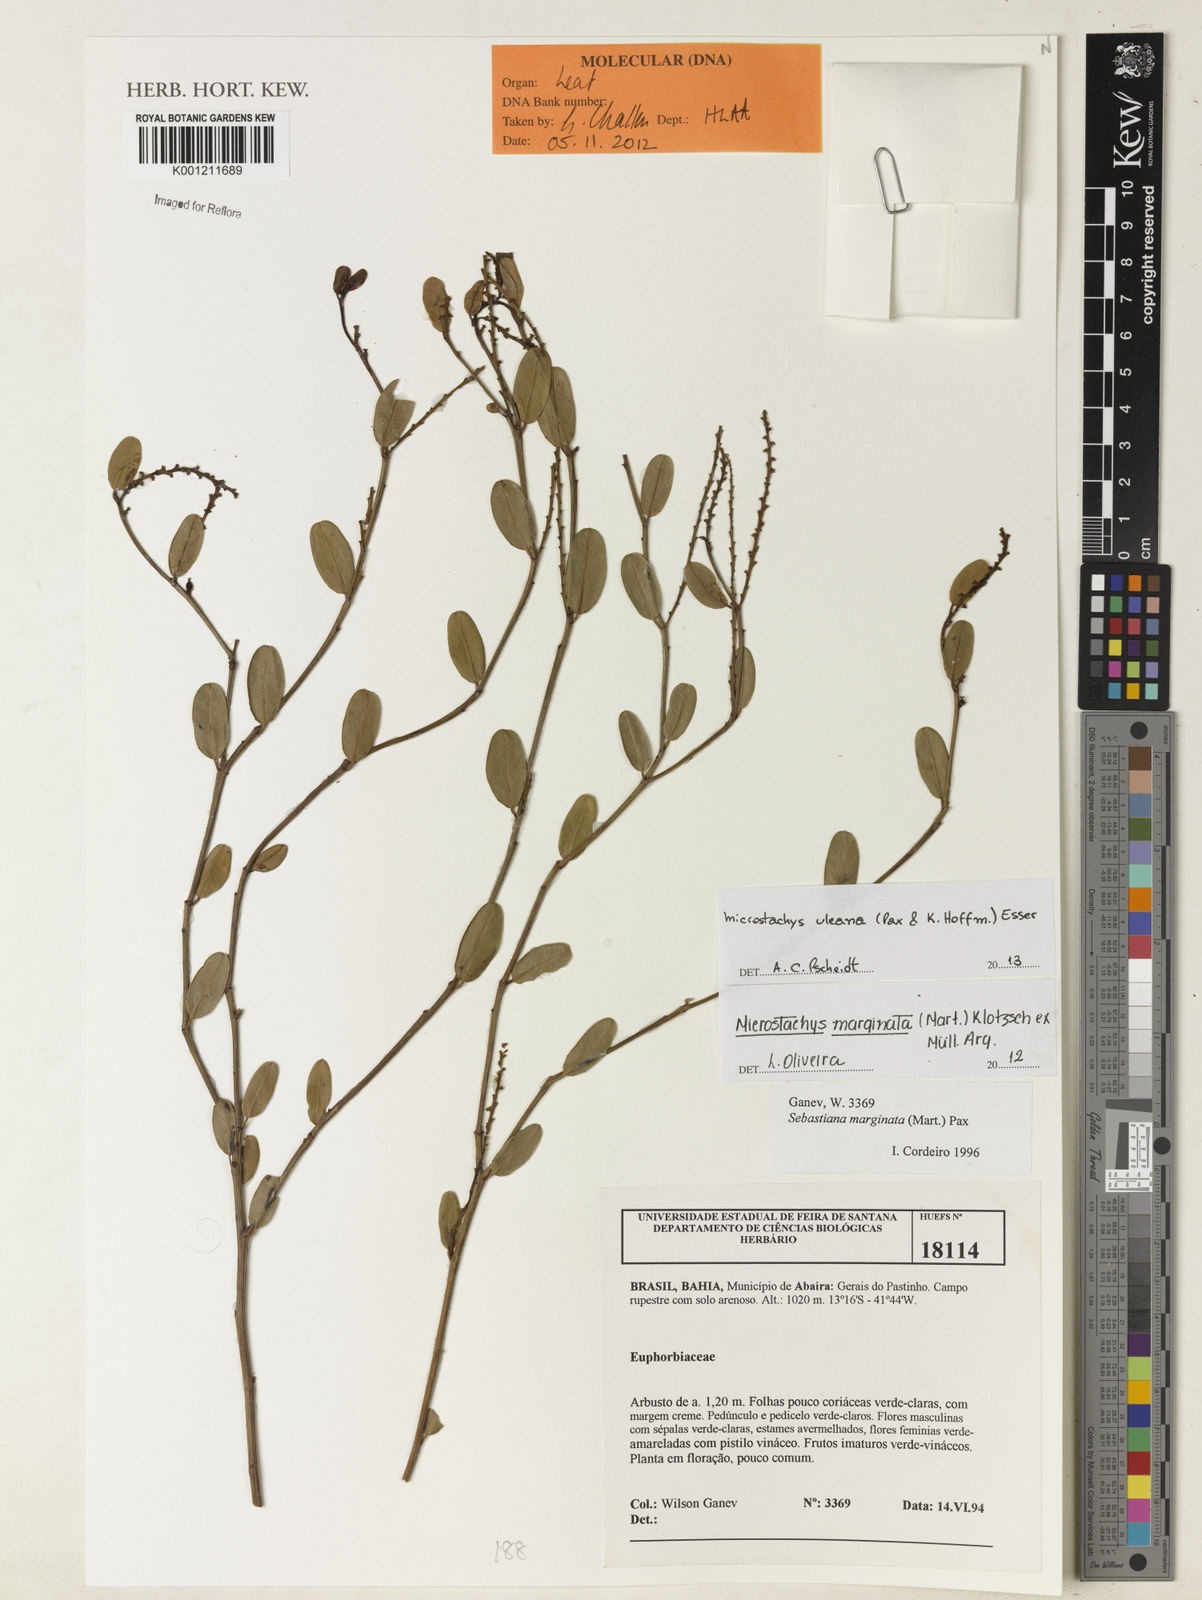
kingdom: Plantae
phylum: Tracheophyta
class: Magnoliopsida
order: Malpighiales
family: Euphorbiaceae
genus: Microstachys
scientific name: Microstachys uleana
